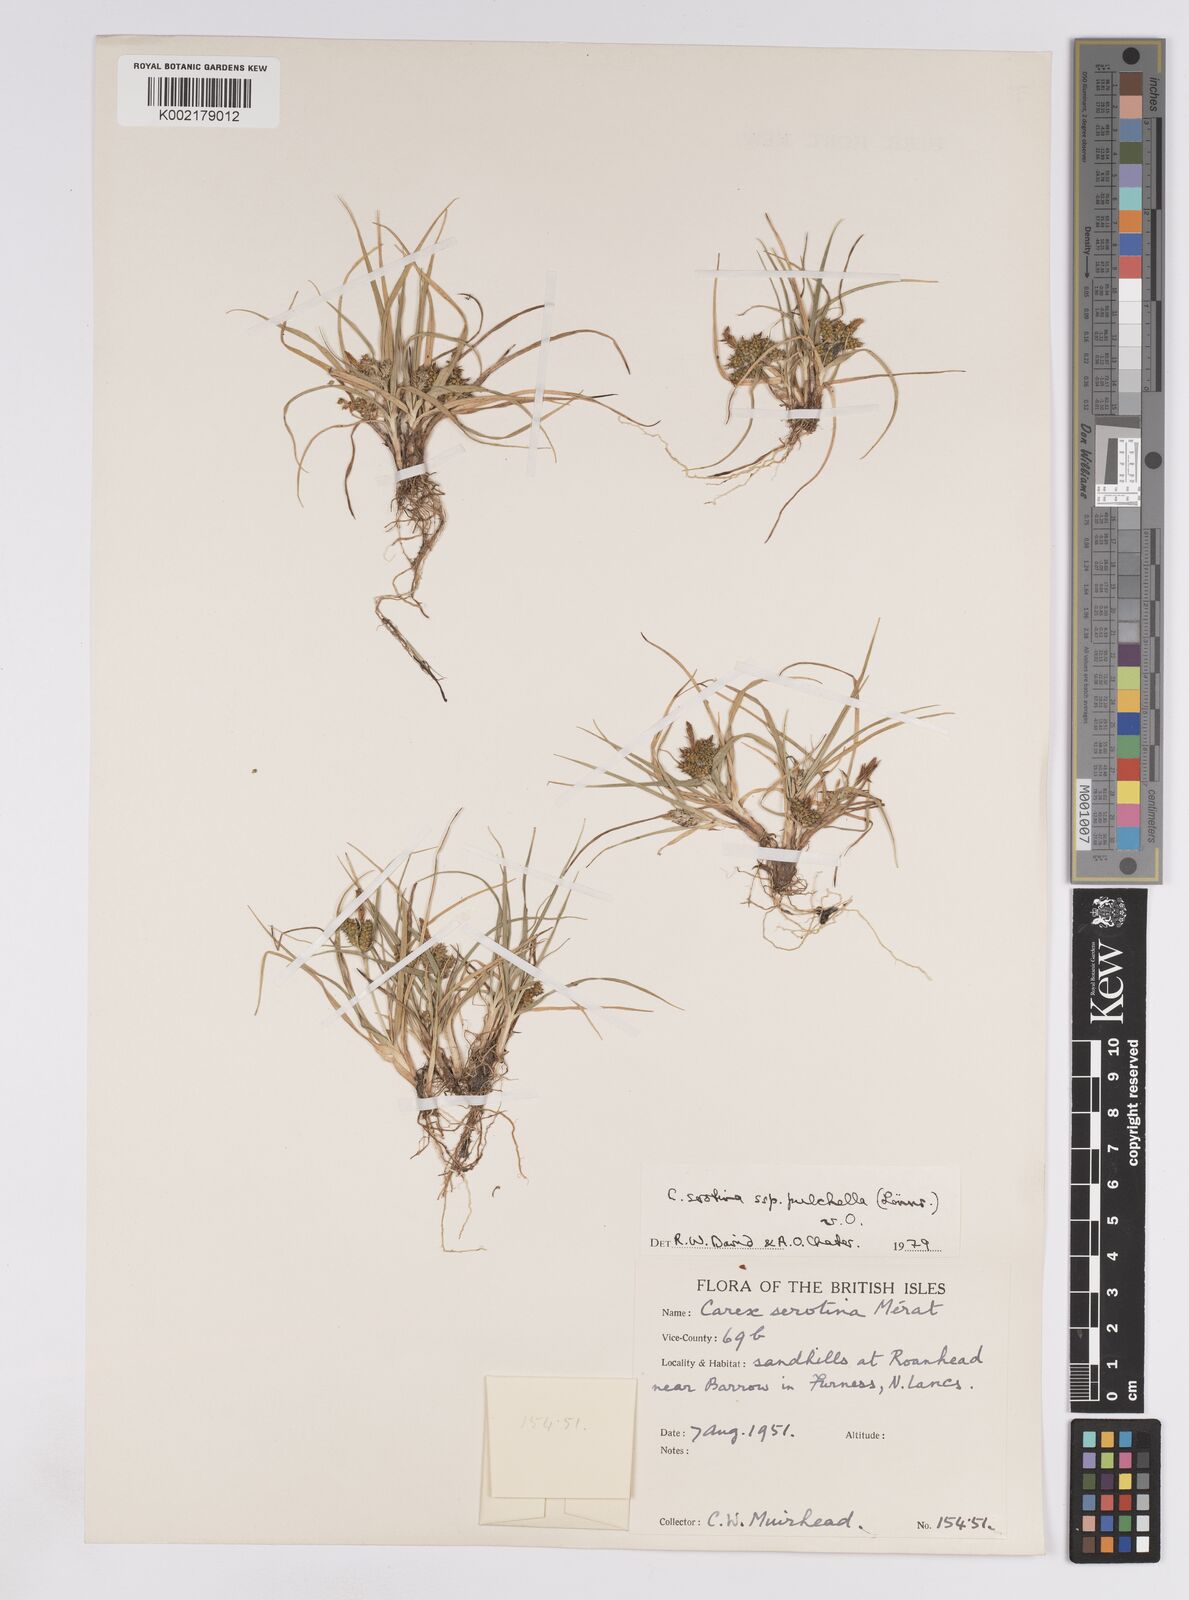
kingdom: Plantae
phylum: Tracheophyta
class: Liliopsida
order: Poales
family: Cyperaceae
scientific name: Cyperaceae
